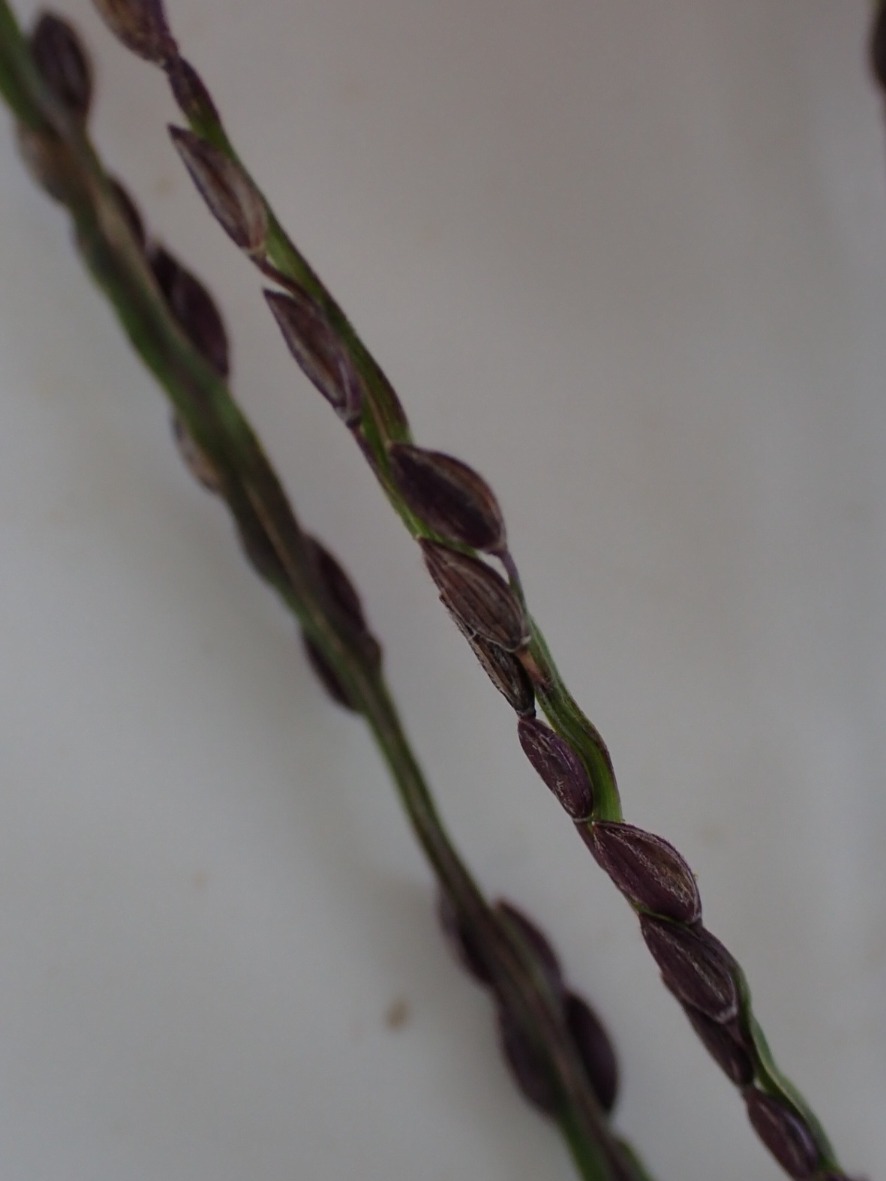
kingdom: Plantae
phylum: Tracheophyta
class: Liliopsida
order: Poales
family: Poaceae
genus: Digitaria
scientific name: Digitaria ischaemum
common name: Liden fingeraks
